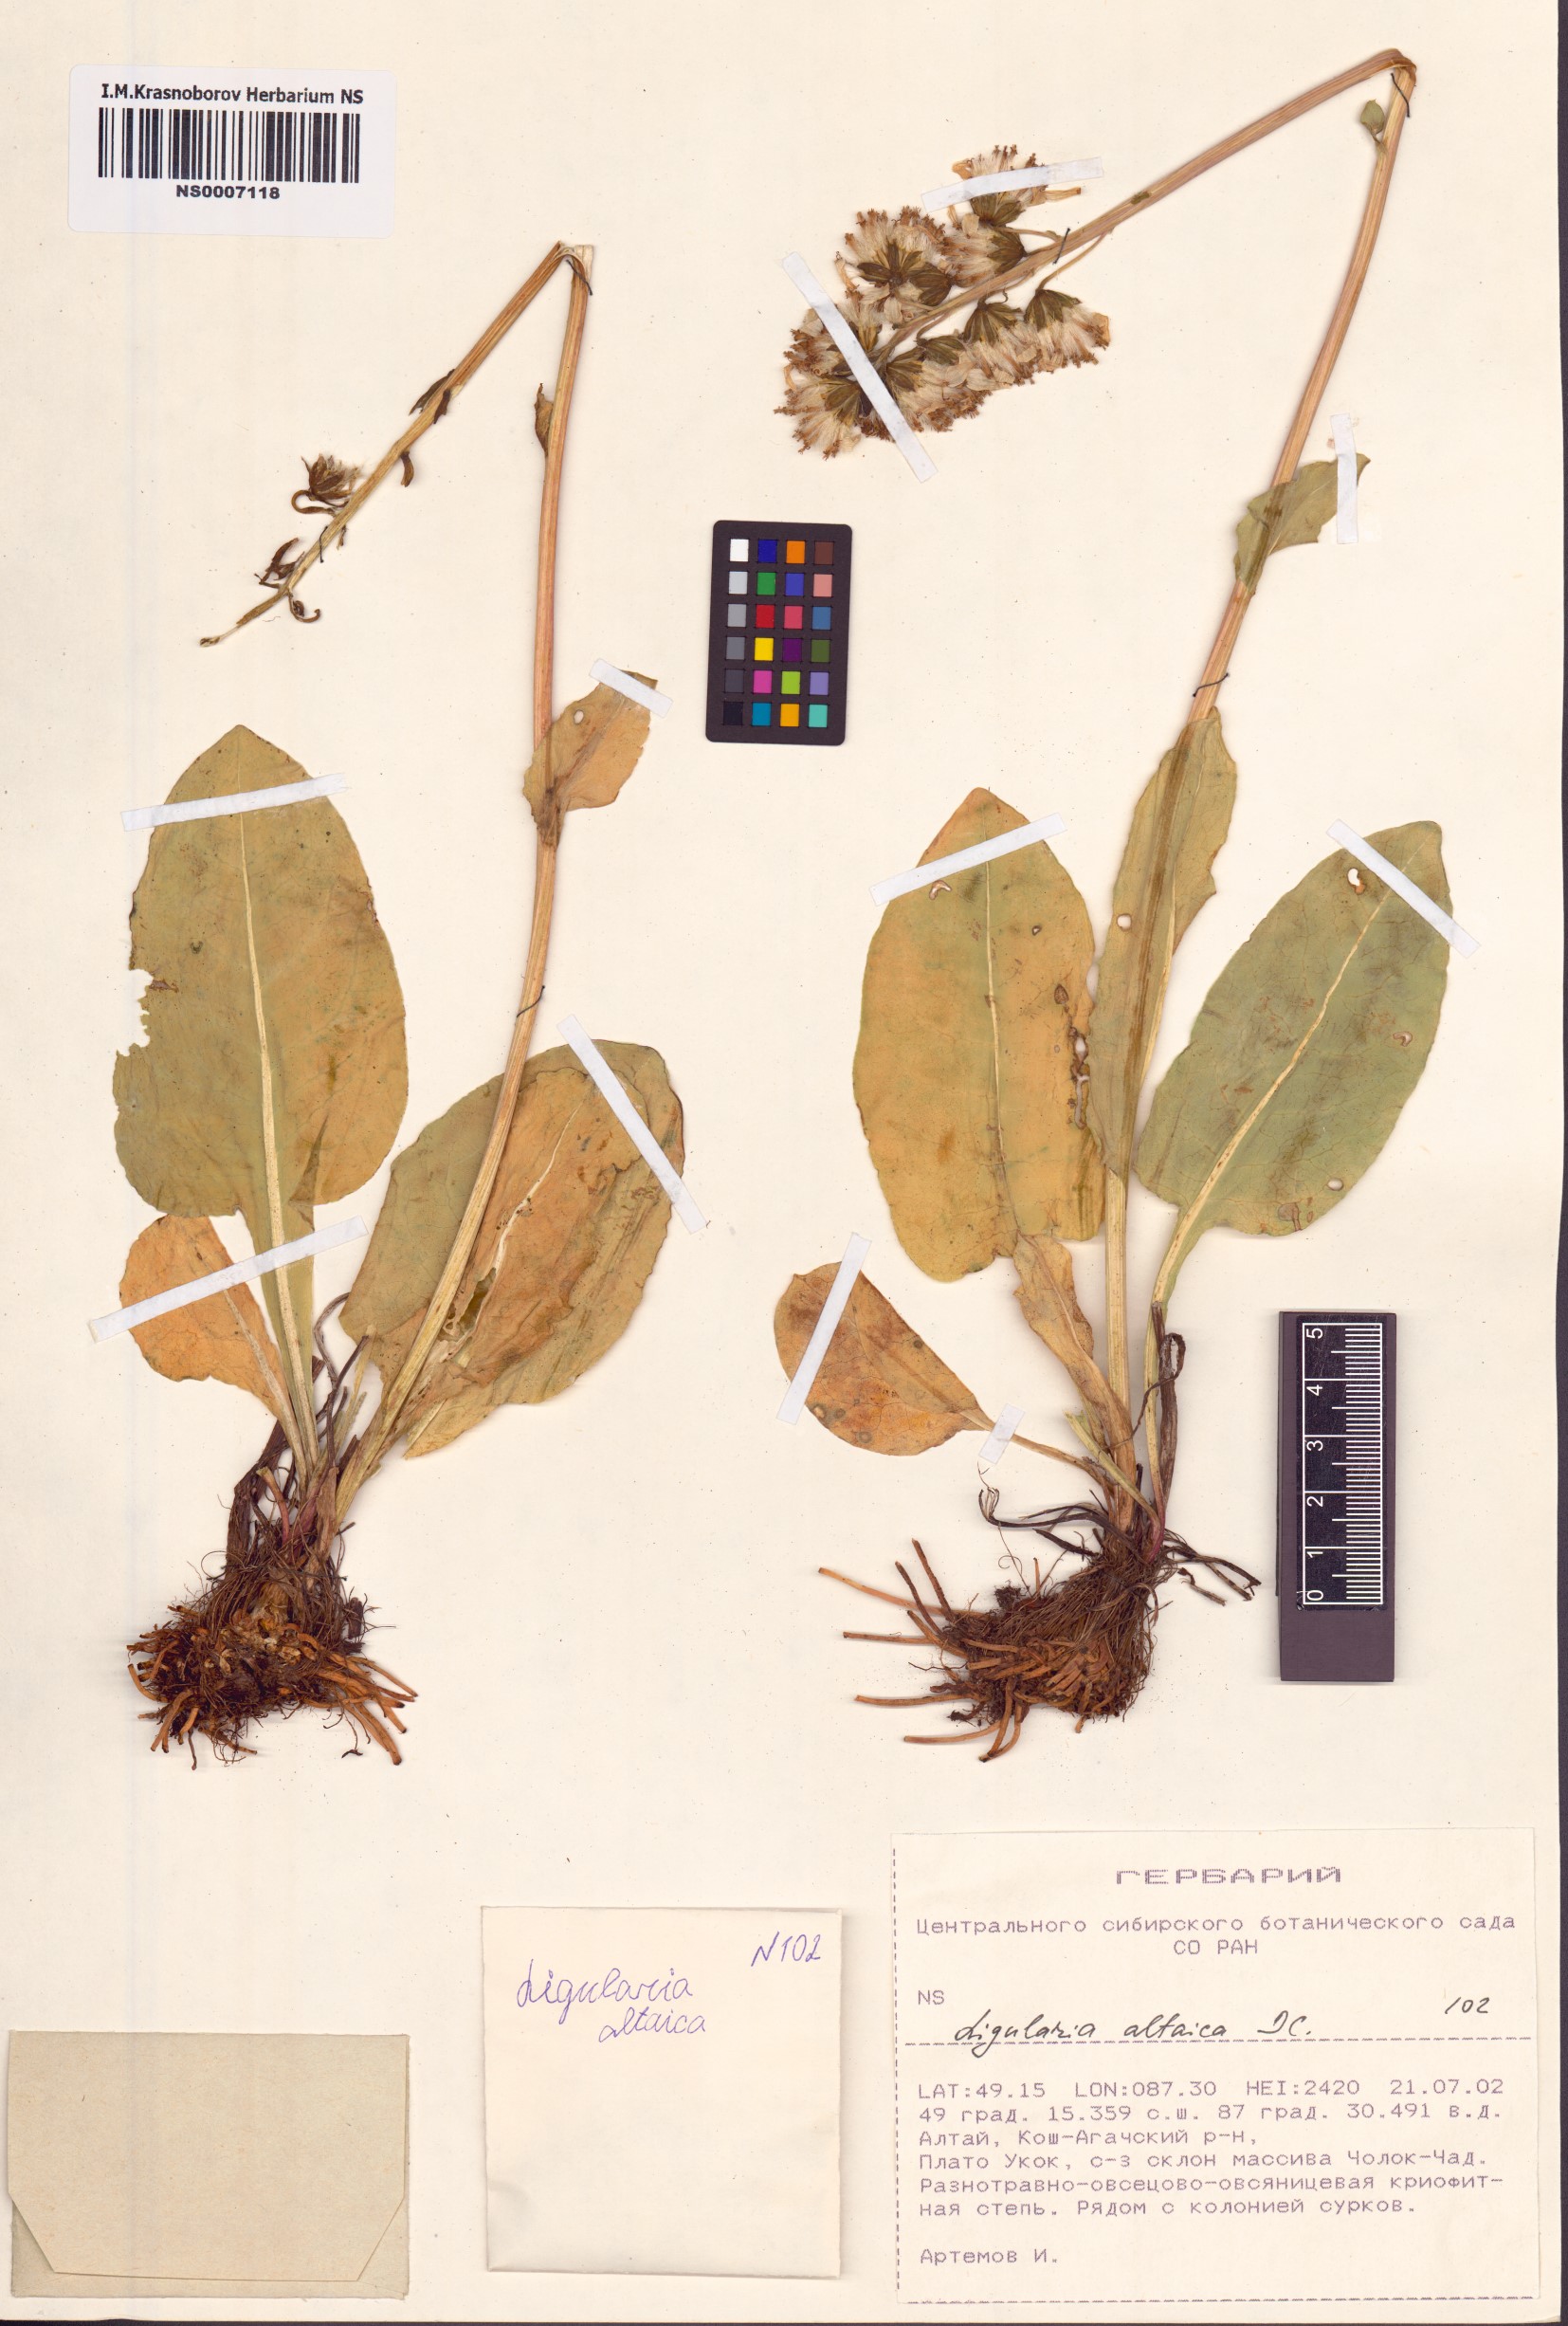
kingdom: Plantae
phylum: Tracheophyta
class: Magnoliopsida
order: Asterales
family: Asteraceae
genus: Ligularia
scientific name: Ligularia altaica
